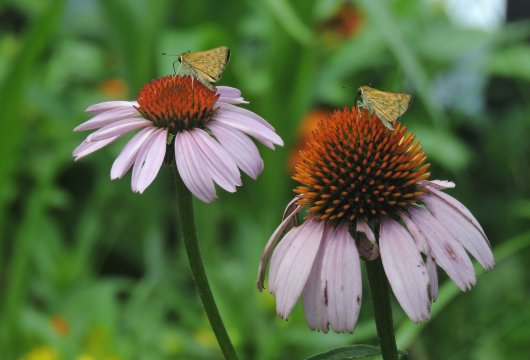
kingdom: Animalia
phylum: Arthropoda
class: Insecta
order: Lepidoptera
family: Hesperiidae
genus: Hylephila
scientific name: Hylephila phyleus
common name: Fiery Skipper
